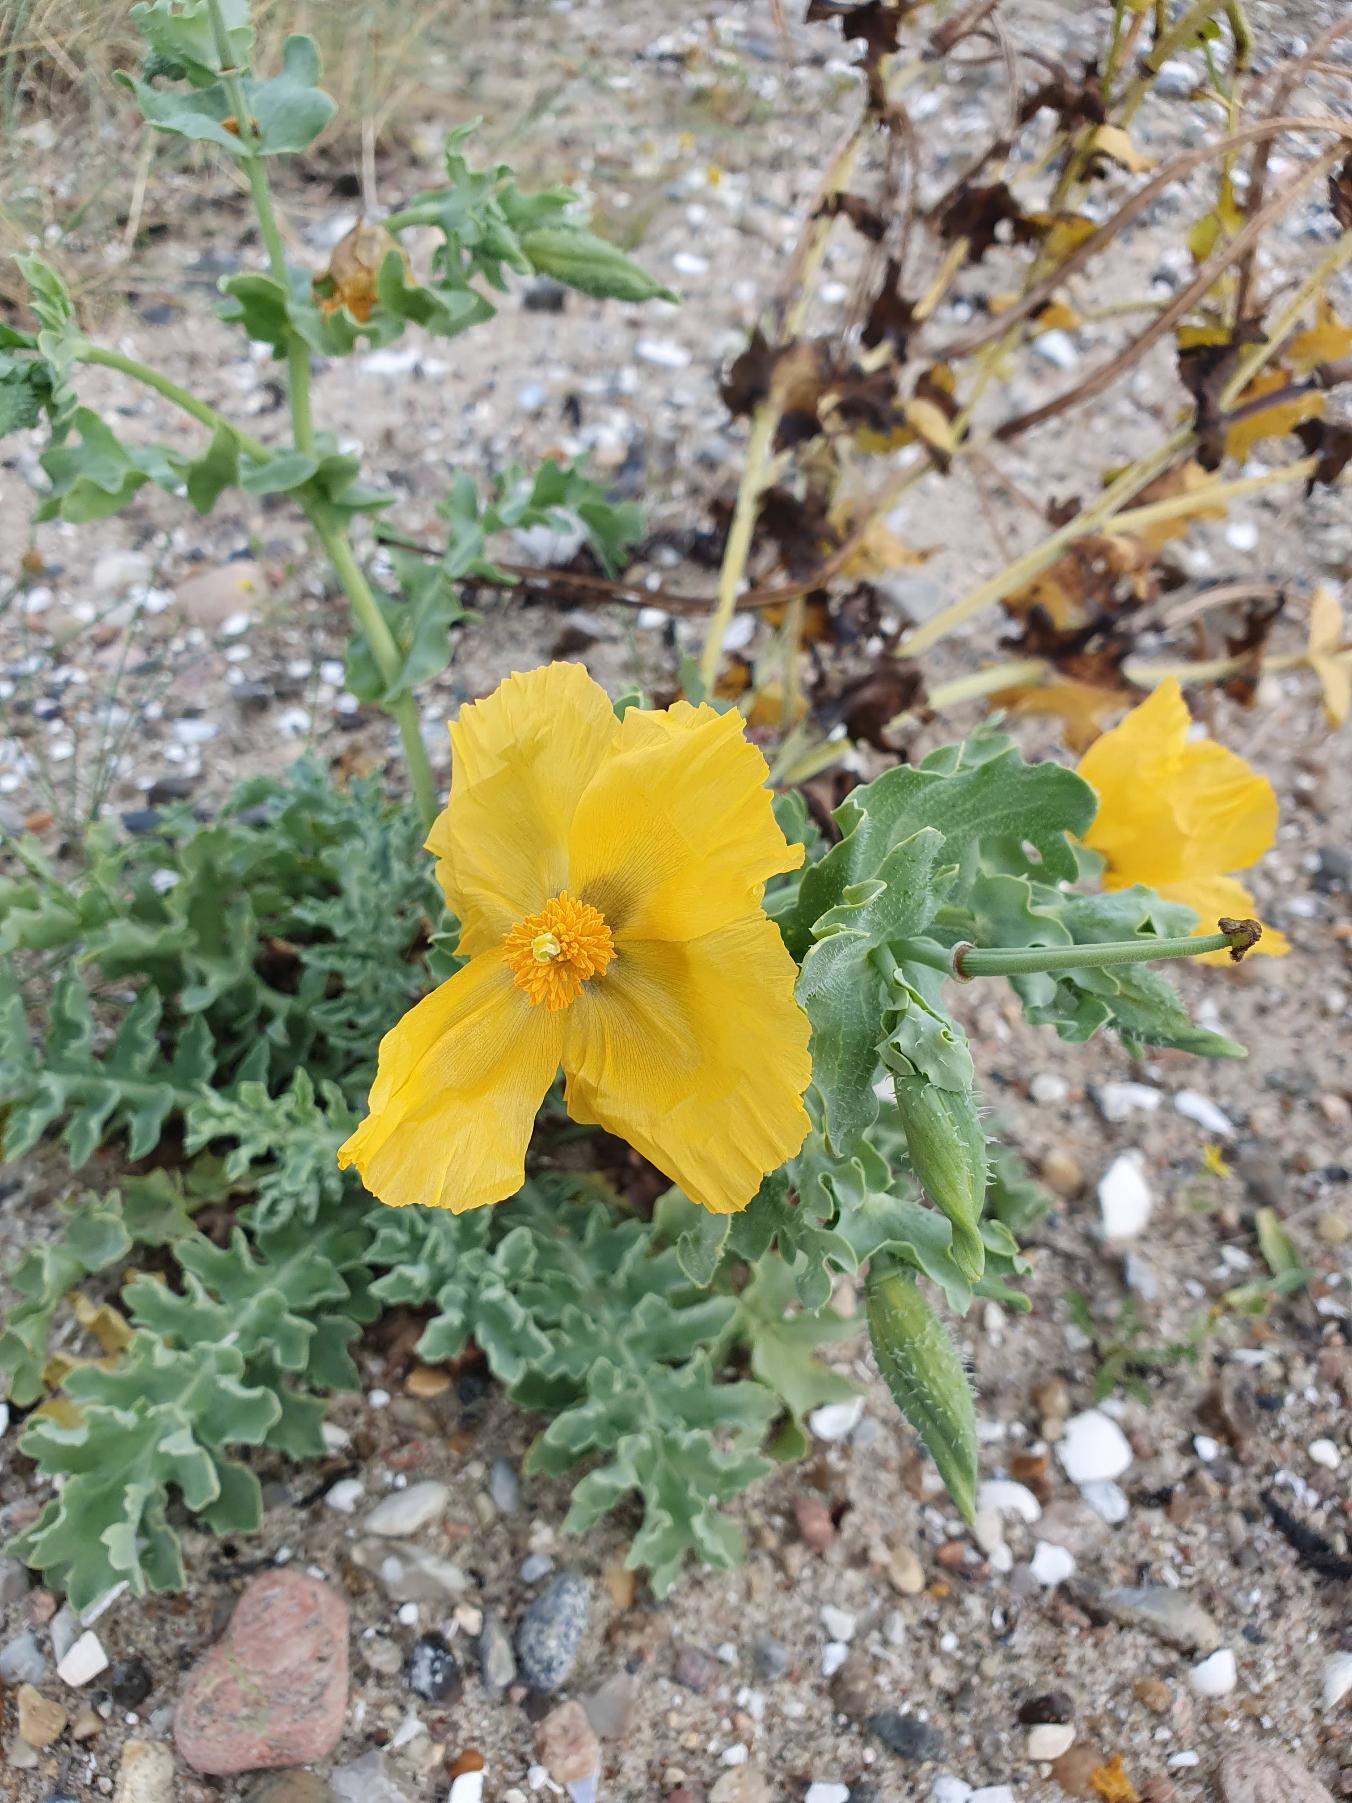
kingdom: Plantae
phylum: Tracheophyta
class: Magnoliopsida
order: Ranunculales
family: Papaveraceae
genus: Glaucium
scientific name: Glaucium flavum
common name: Hornskulpe
